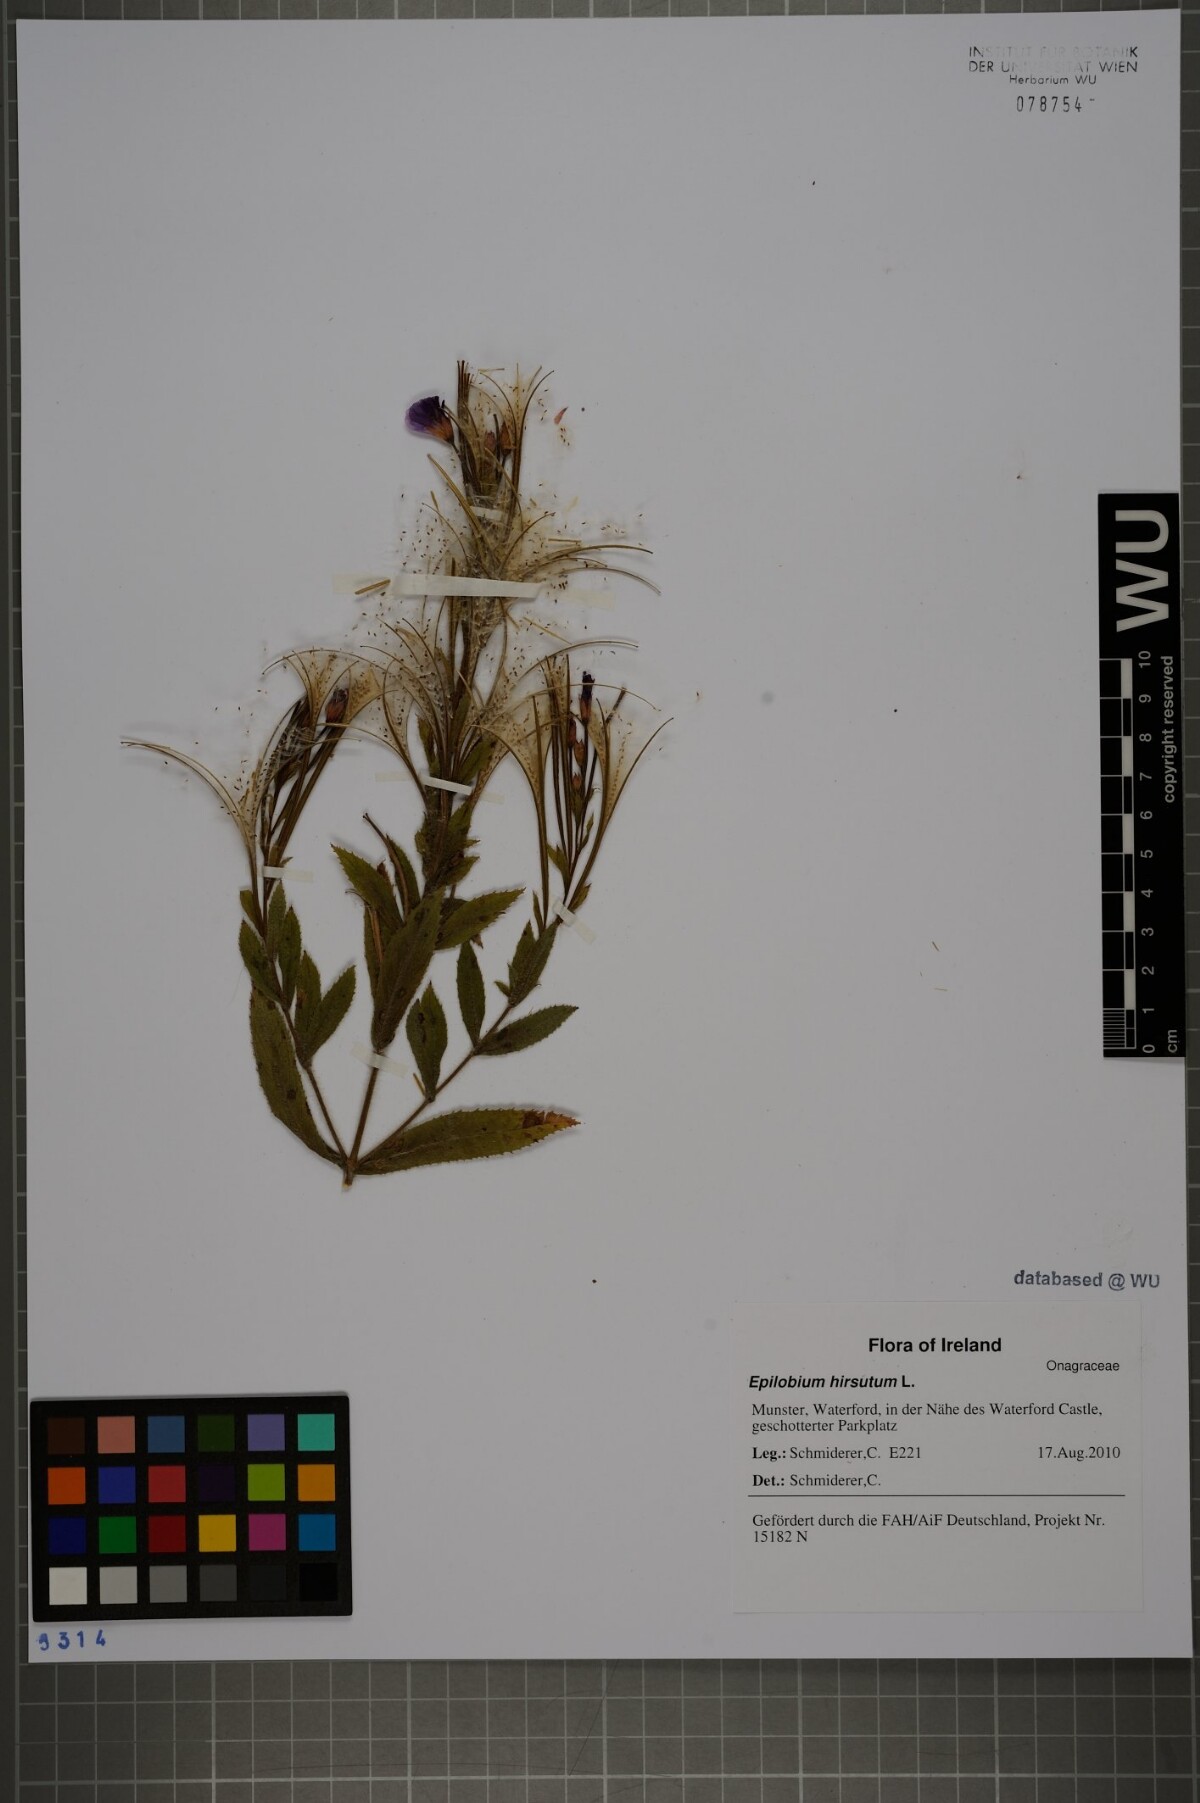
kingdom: Plantae
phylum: Tracheophyta
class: Magnoliopsida
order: Myrtales
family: Onagraceae
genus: Epilobium
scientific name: Epilobium hirsutum
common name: Great willowherb
